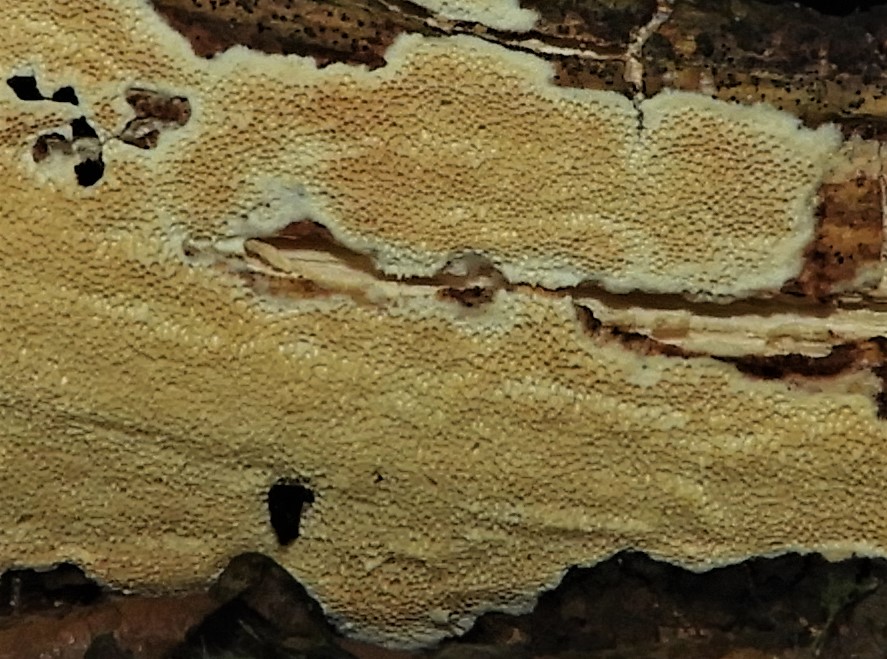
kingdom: Fungi
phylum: Basidiomycota
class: Agaricomycetes
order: Polyporales
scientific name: Polyporales
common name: poresvampordenen
